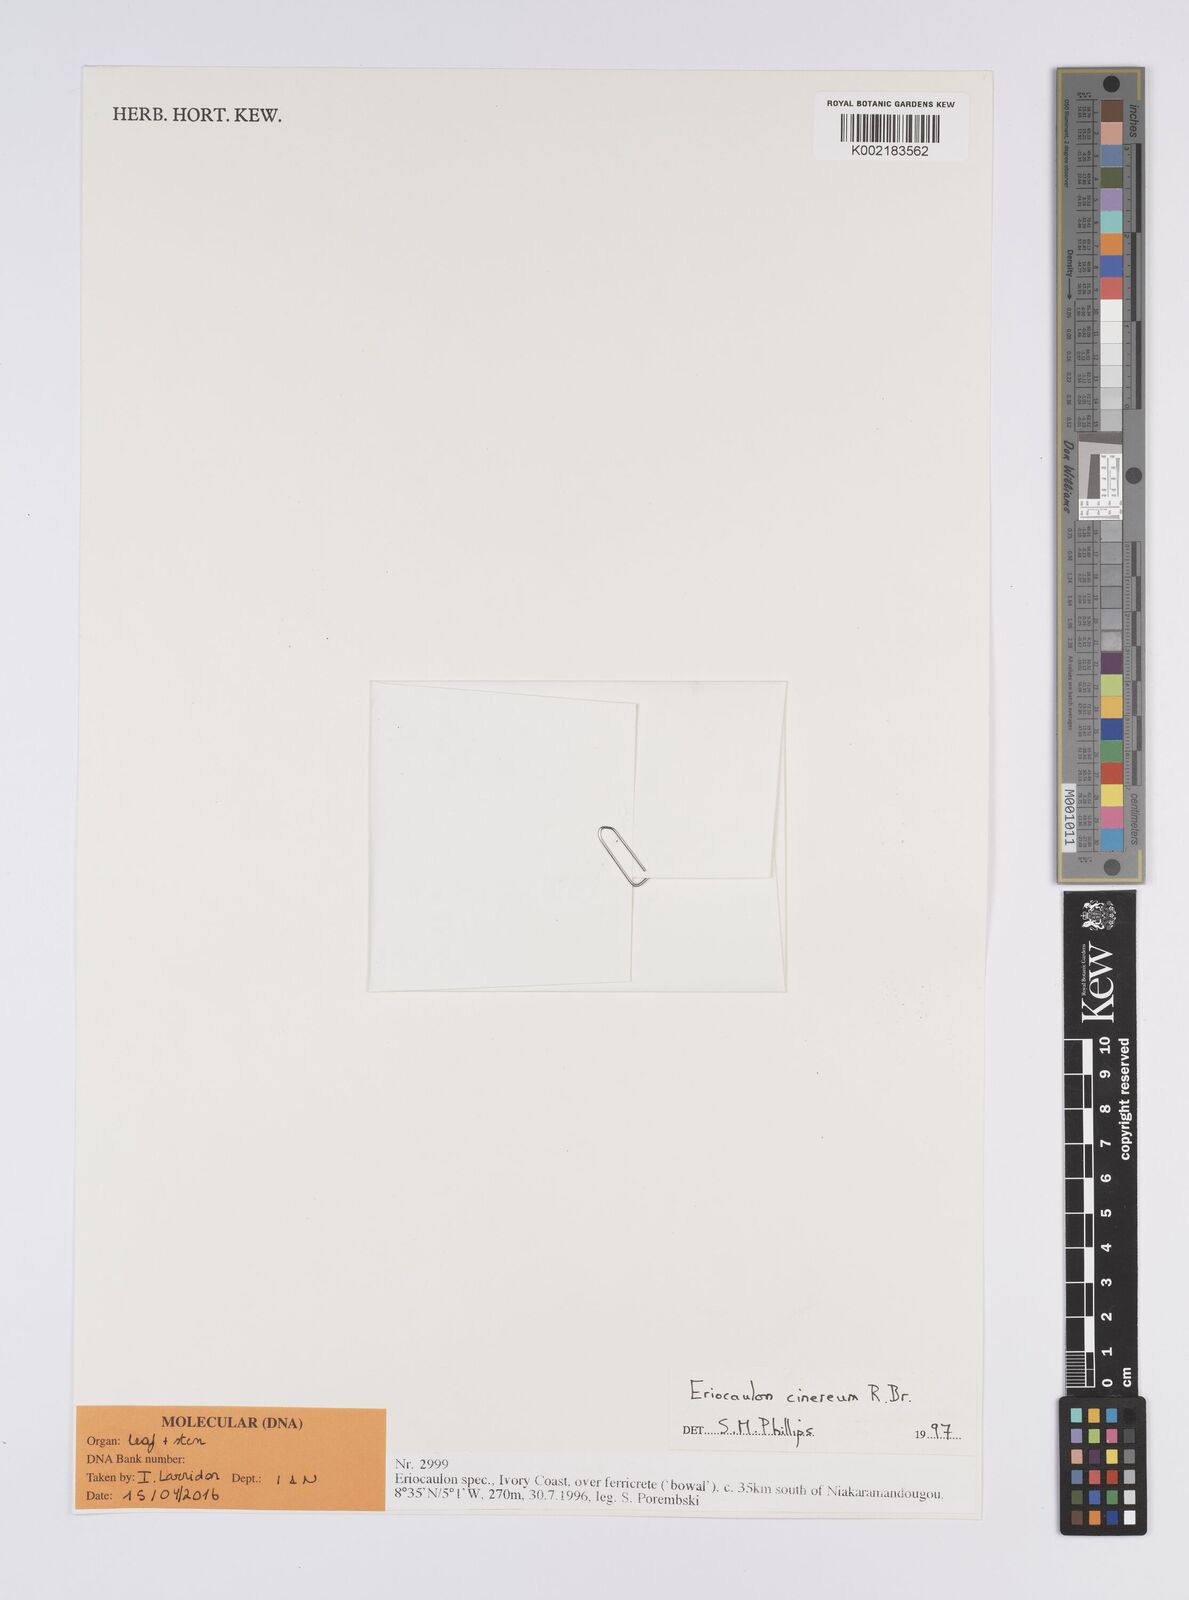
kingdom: Plantae
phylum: Tracheophyta
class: Liliopsida
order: Poales
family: Eriocaulaceae
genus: Eriocaulon
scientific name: Eriocaulon cinereum
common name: Ashy pipewort
